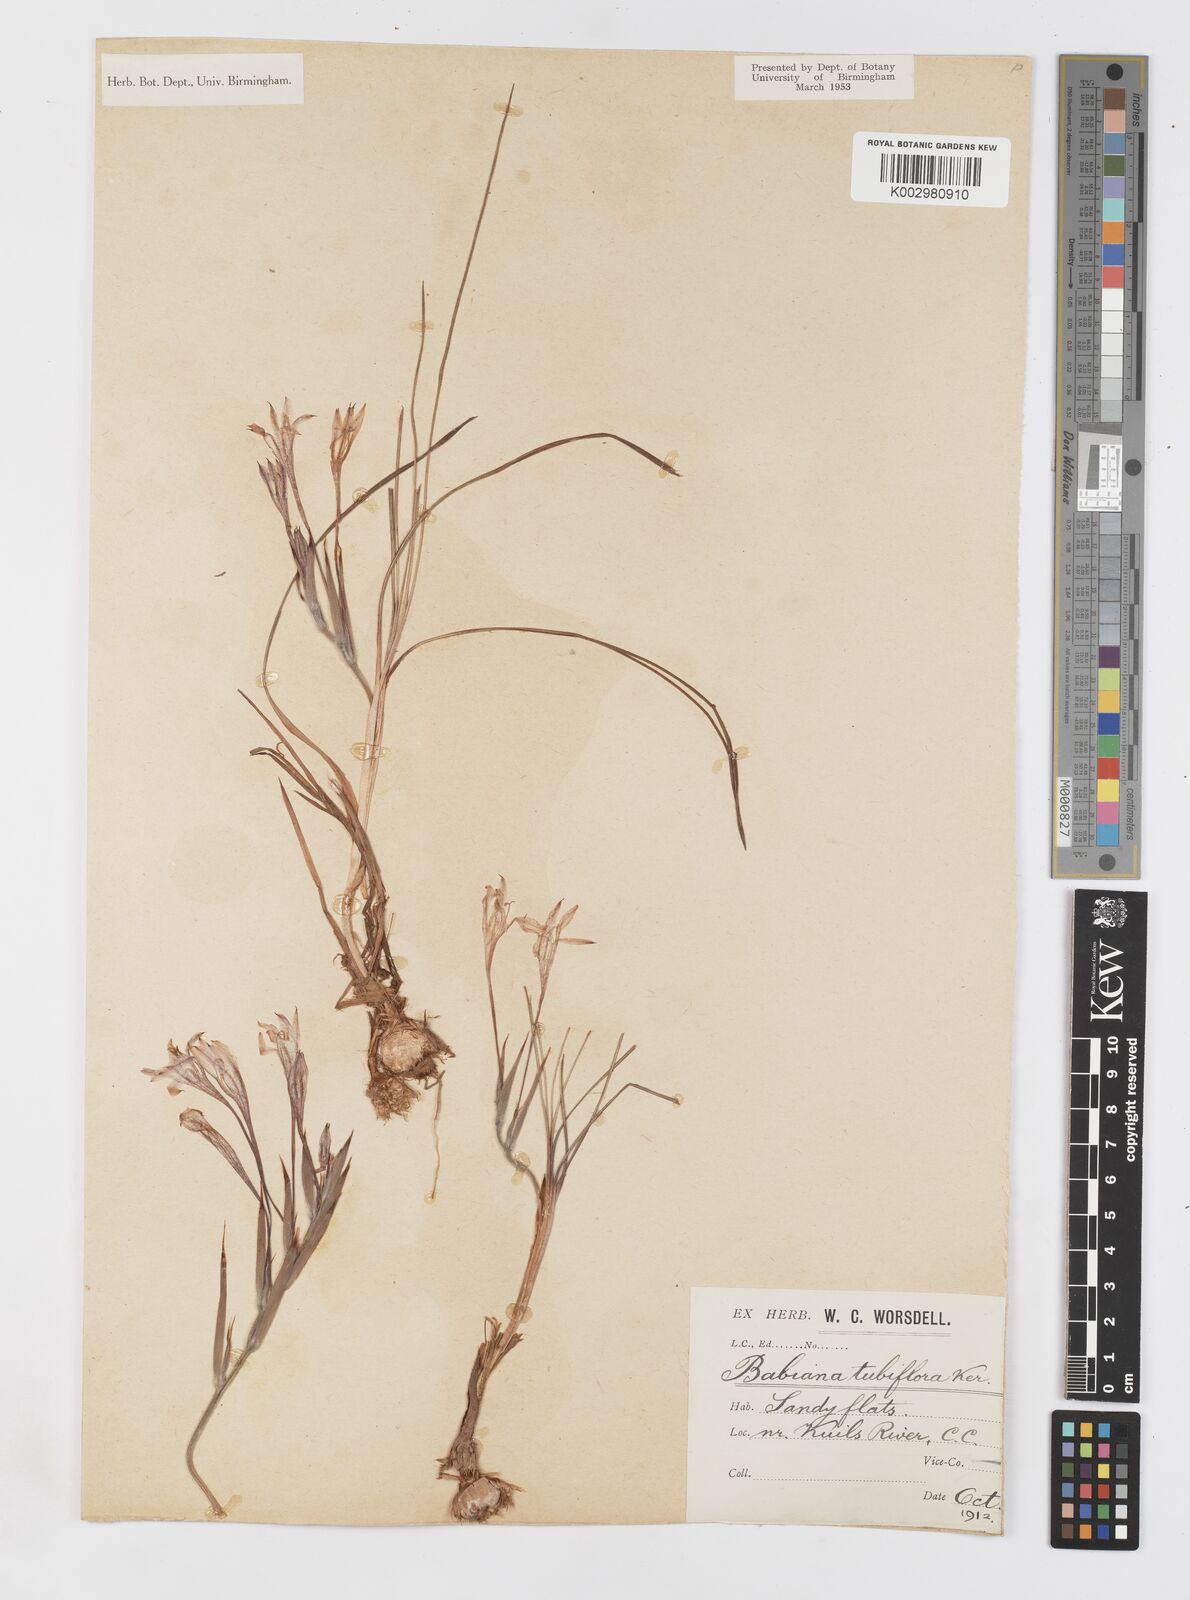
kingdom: Plantae
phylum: Tracheophyta
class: Liliopsida
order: Asparagales
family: Iridaceae
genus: Babiana
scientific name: Babiana tubiflora
